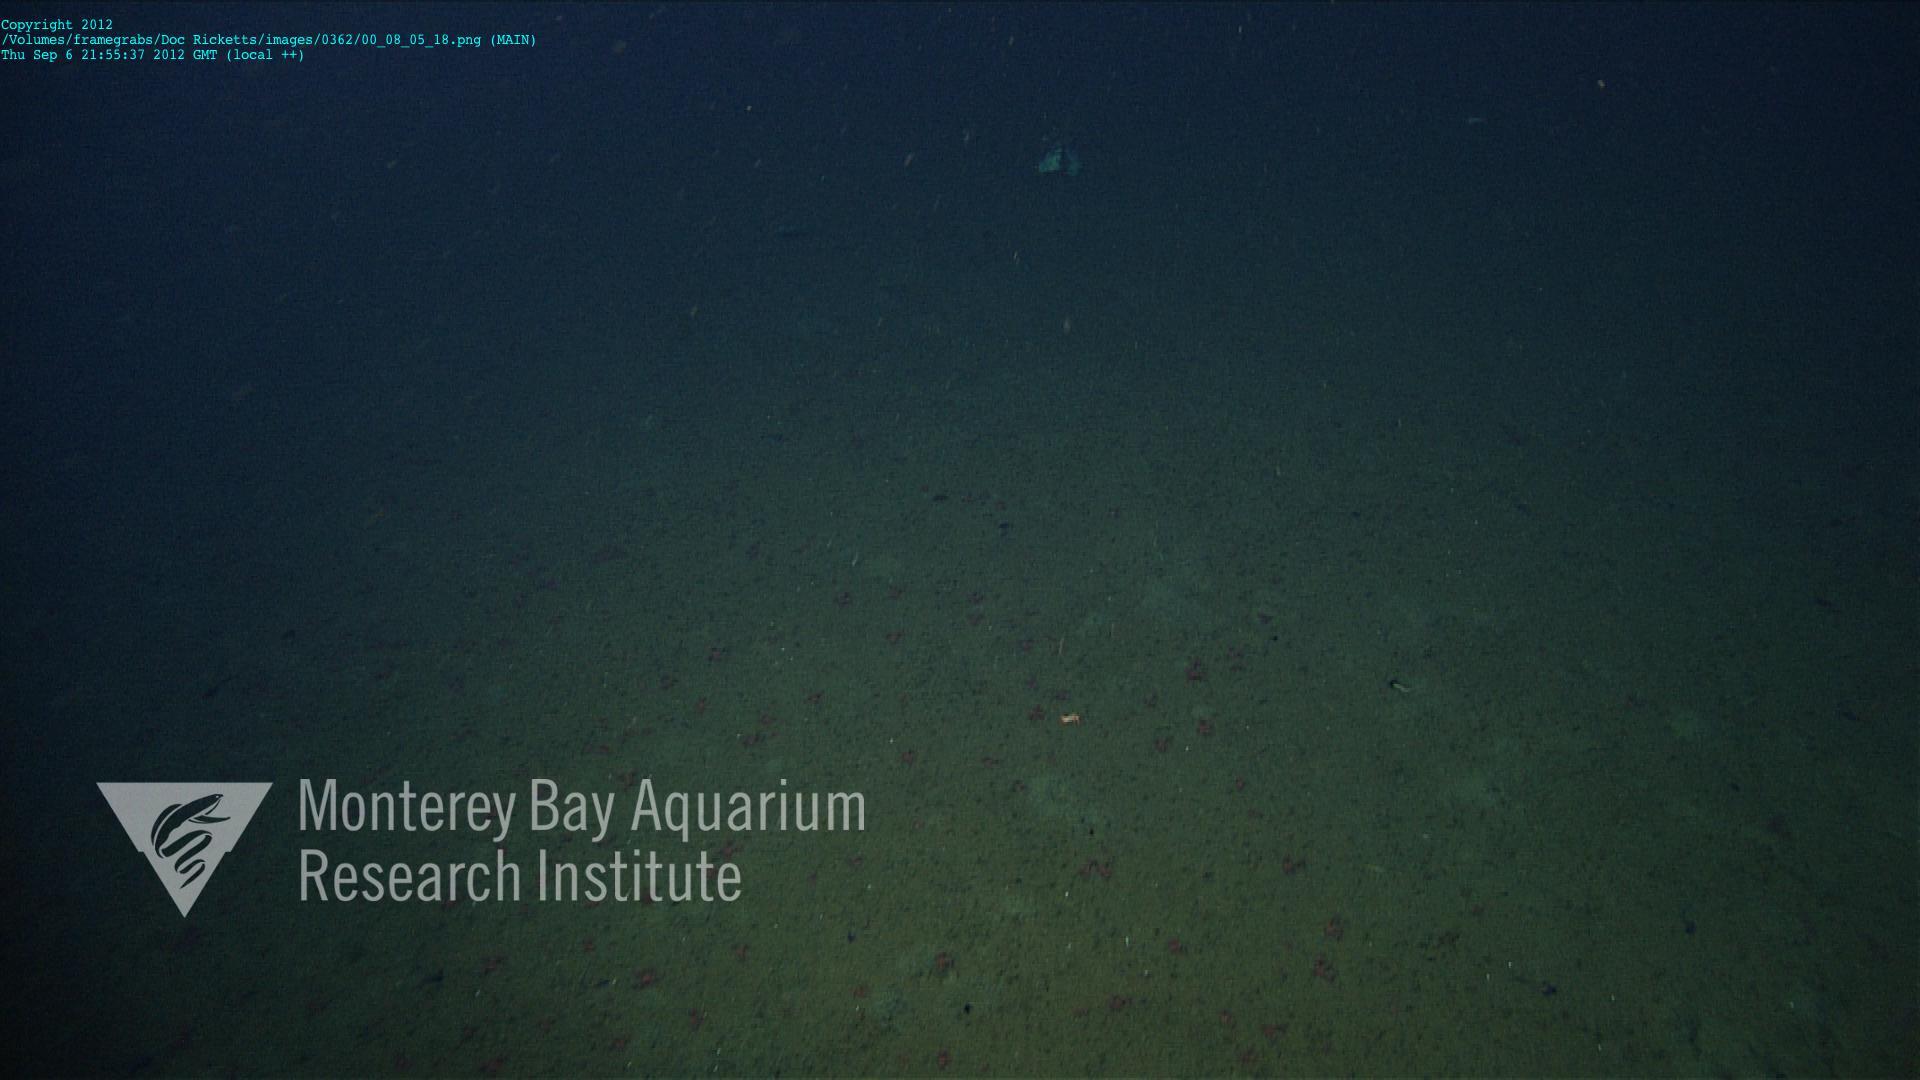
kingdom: Animalia
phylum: Cnidaria
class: Anthozoa
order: Scleralcyonacea
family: Coralliidae
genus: Heteropolypus
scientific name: Heteropolypus
